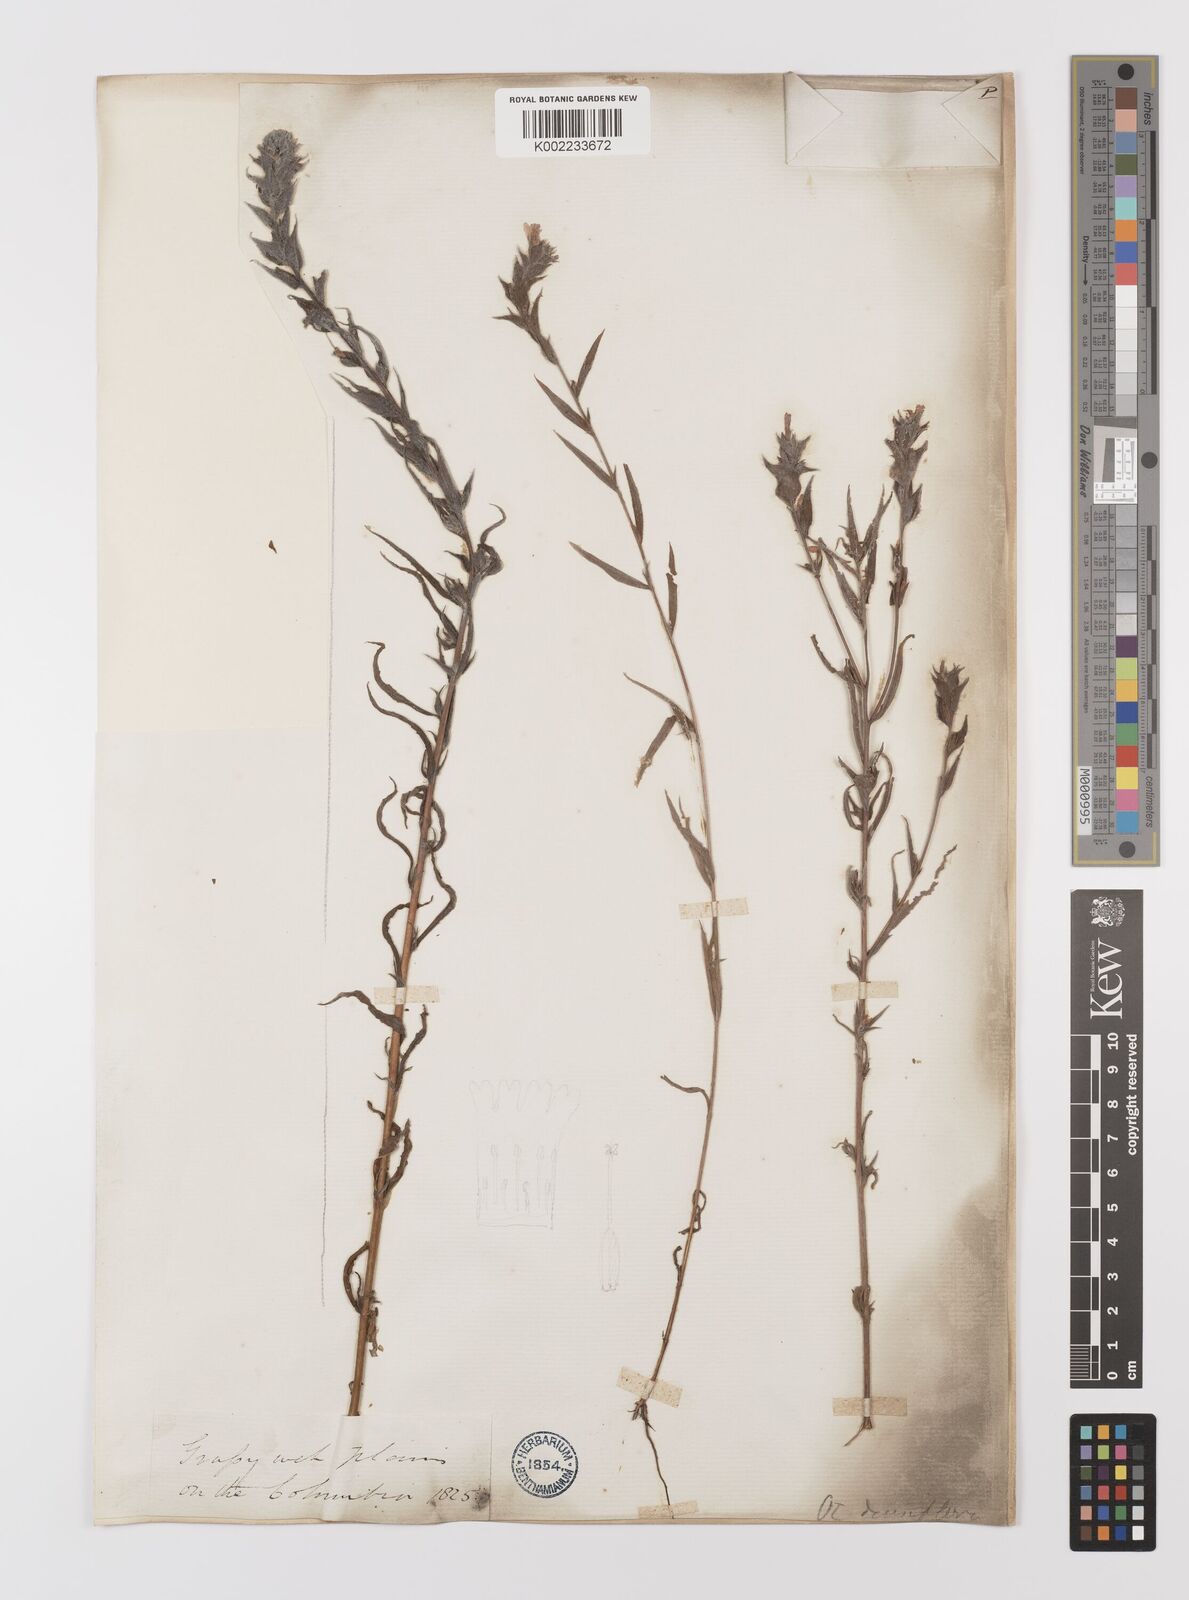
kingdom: Plantae
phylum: Tracheophyta
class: Magnoliopsida
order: Myrtales
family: Onagraceae
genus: Epilobium
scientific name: Epilobium densiflorum
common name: Dense spike-primrose
